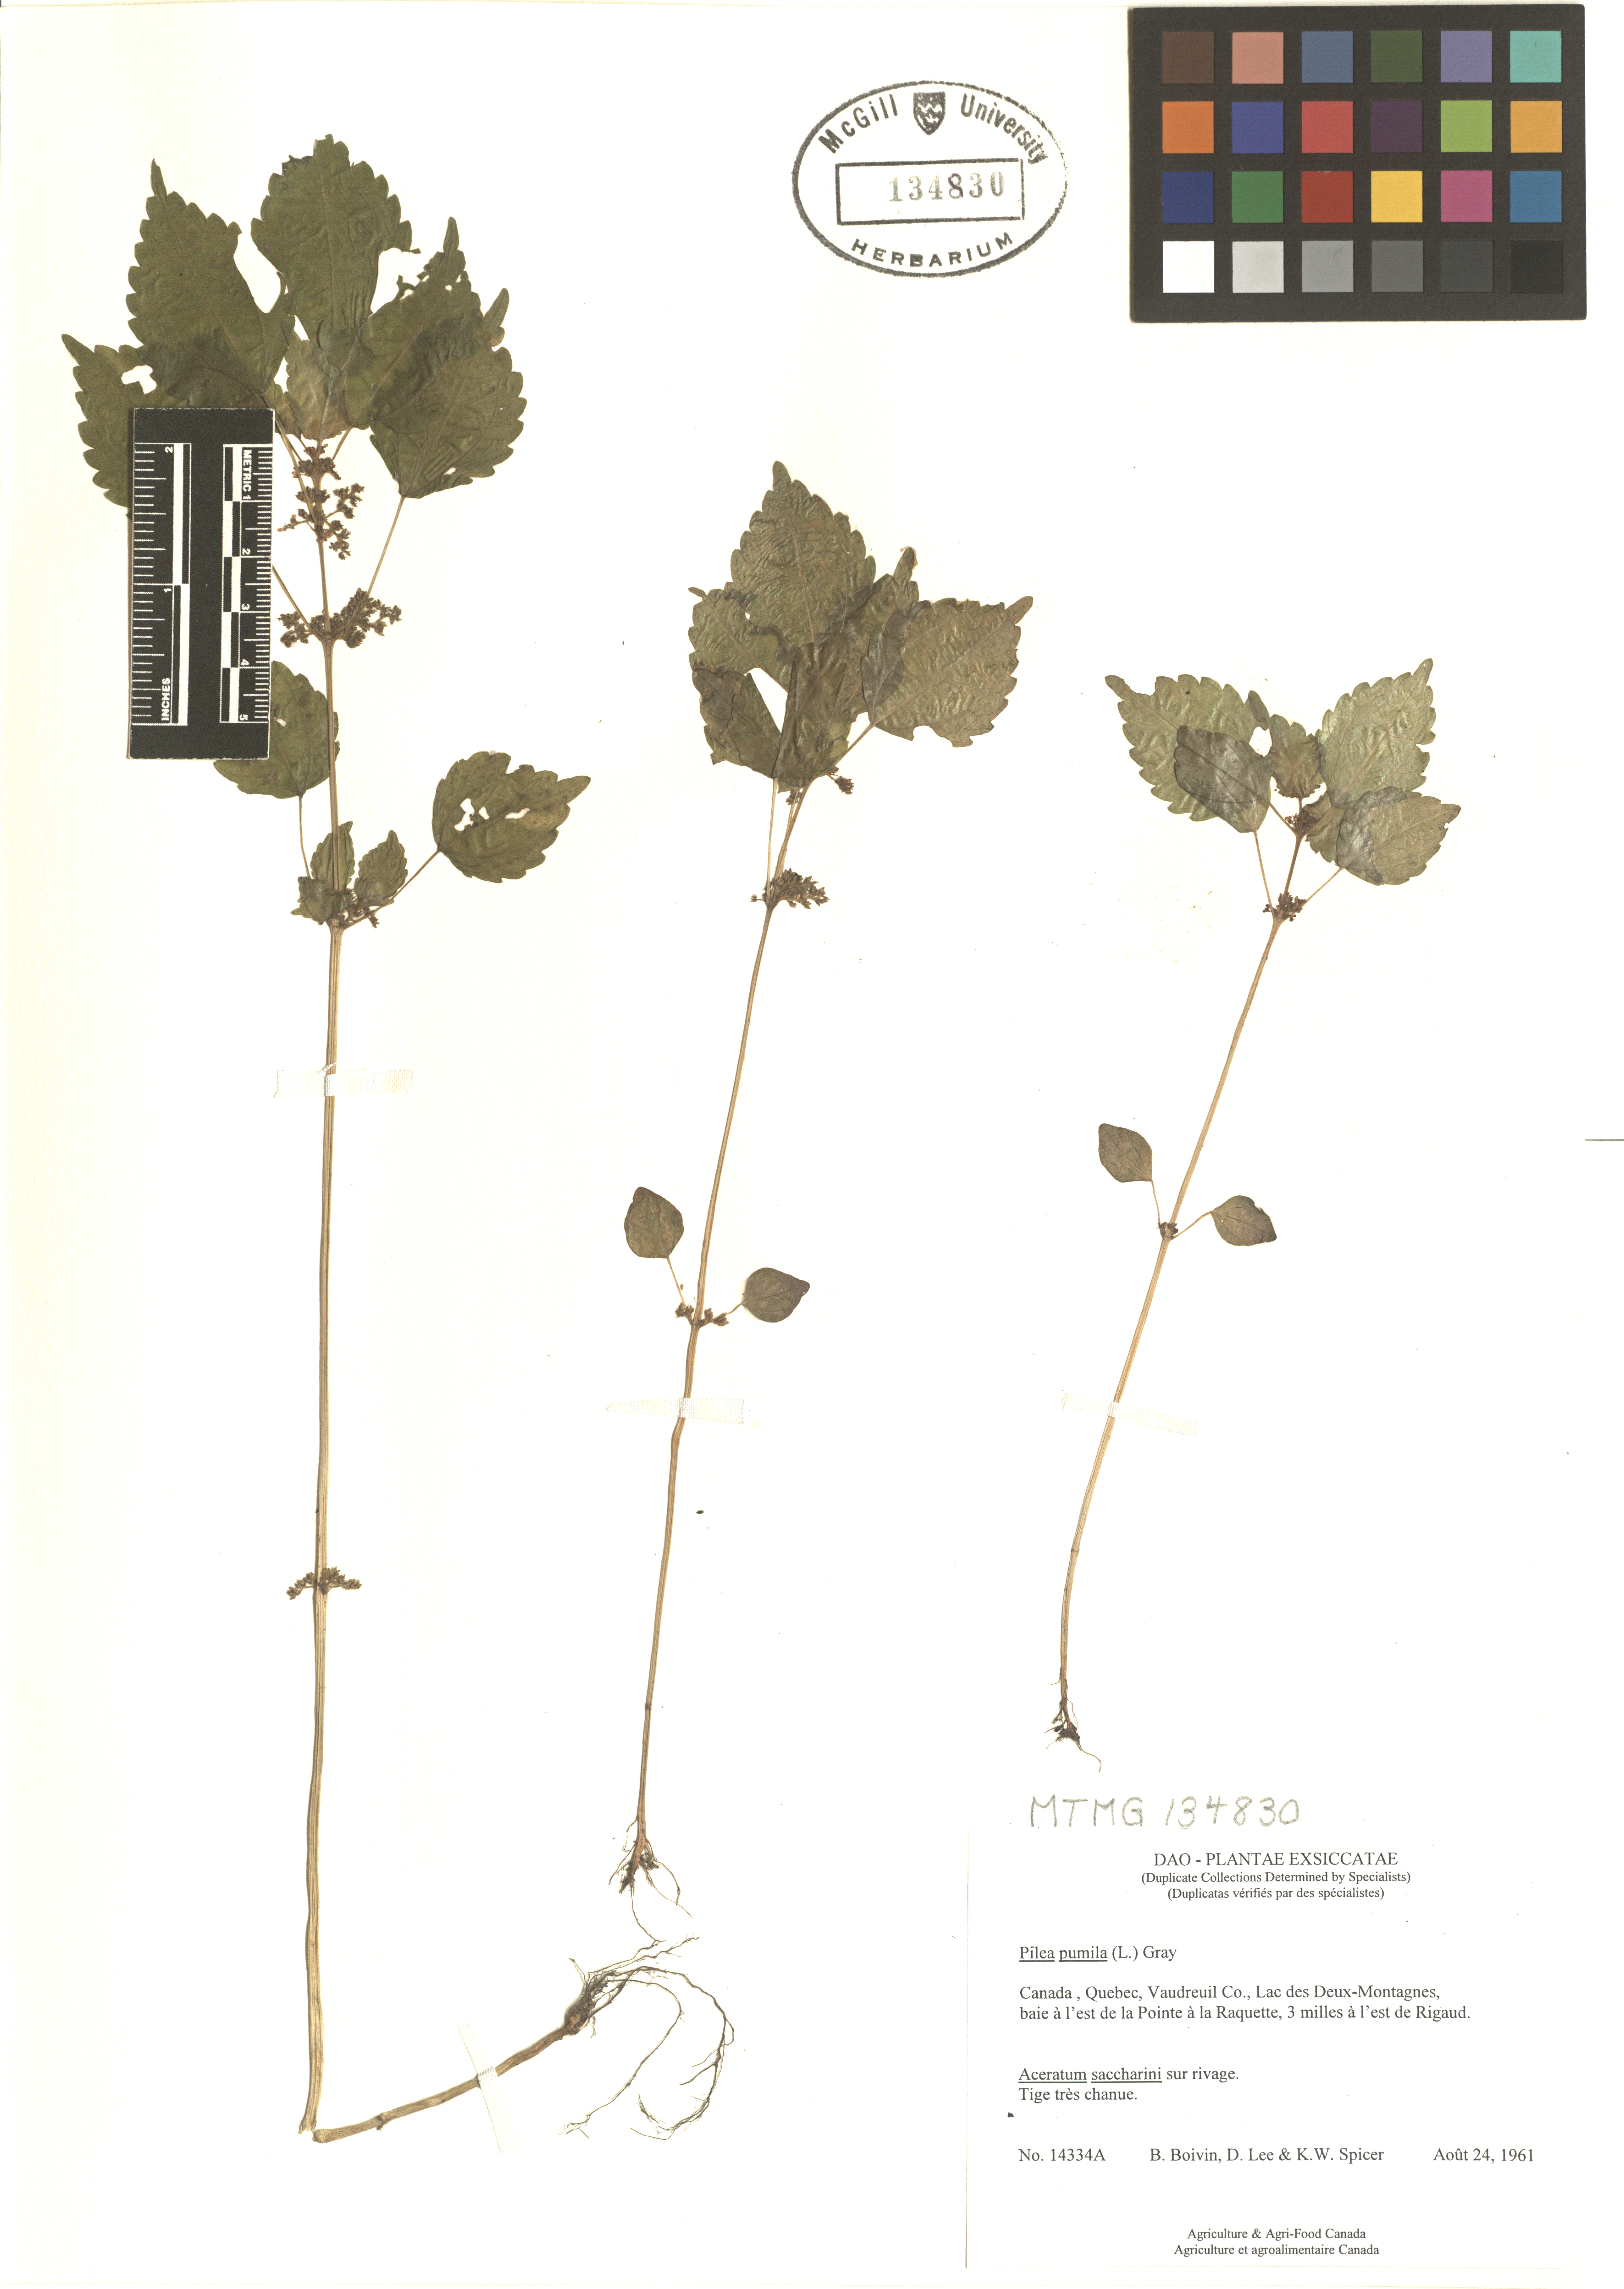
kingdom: Plantae
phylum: Tracheophyta
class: Magnoliopsida
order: Rosales
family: Urticaceae
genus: Pilea
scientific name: Pilea pumila
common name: Clearweed
